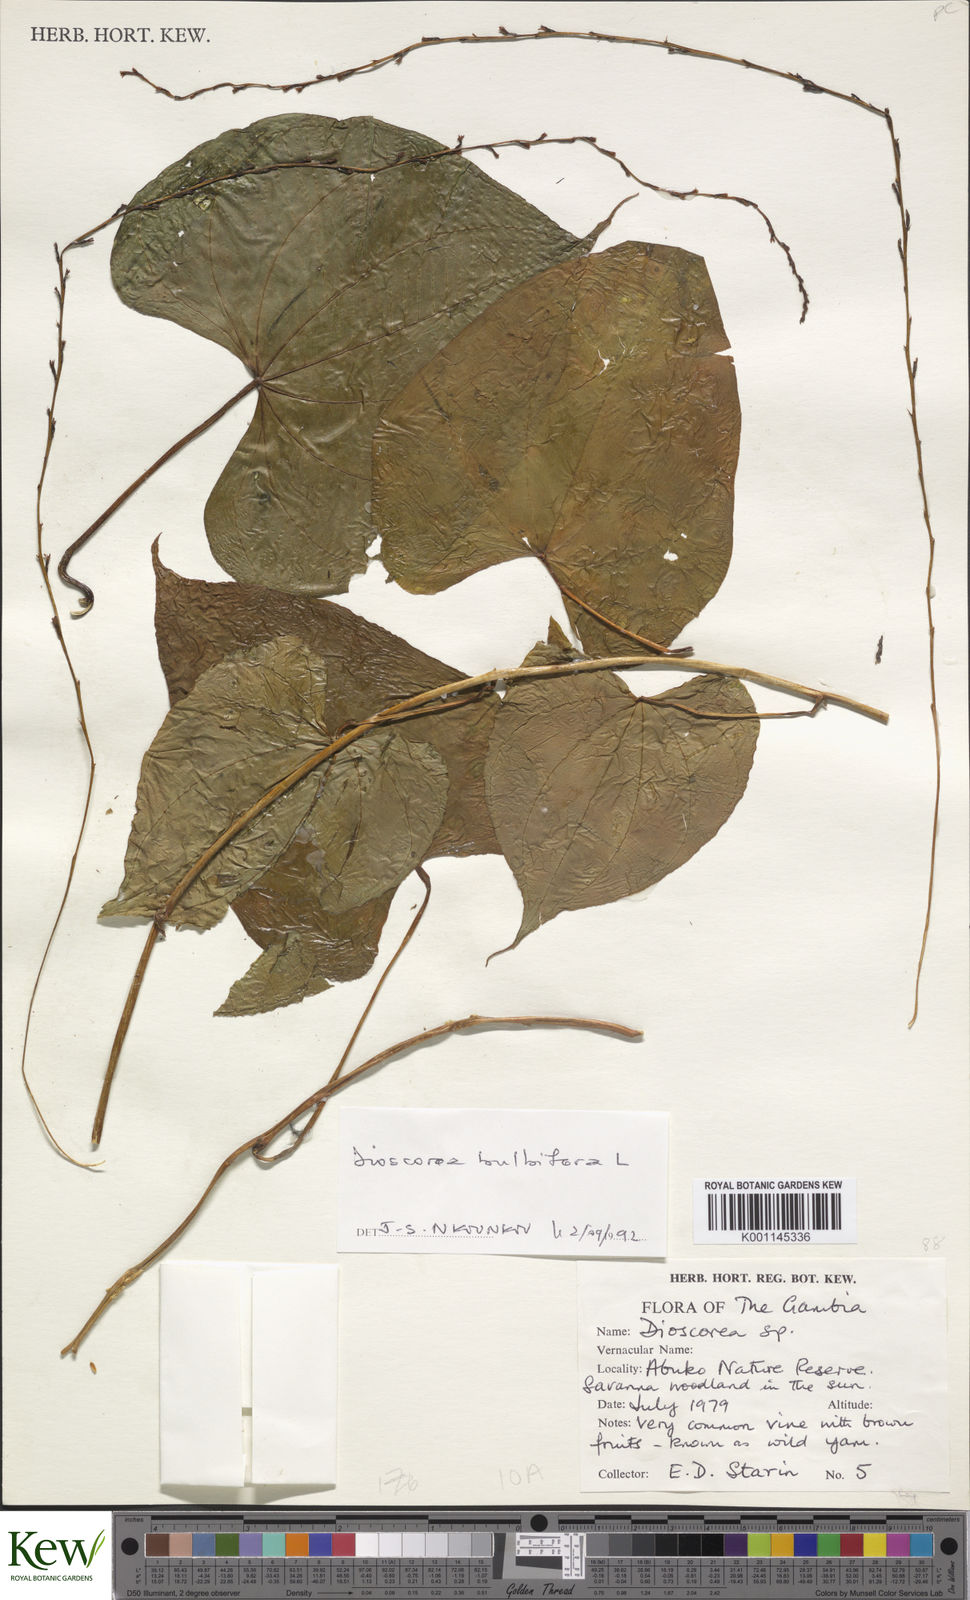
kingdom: Plantae
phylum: Tracheophyta
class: Liliopsida
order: Dioscoreales
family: Dioscoreaceae
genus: Dioscorea
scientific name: Dioscorea bulbifera
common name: Air yam
